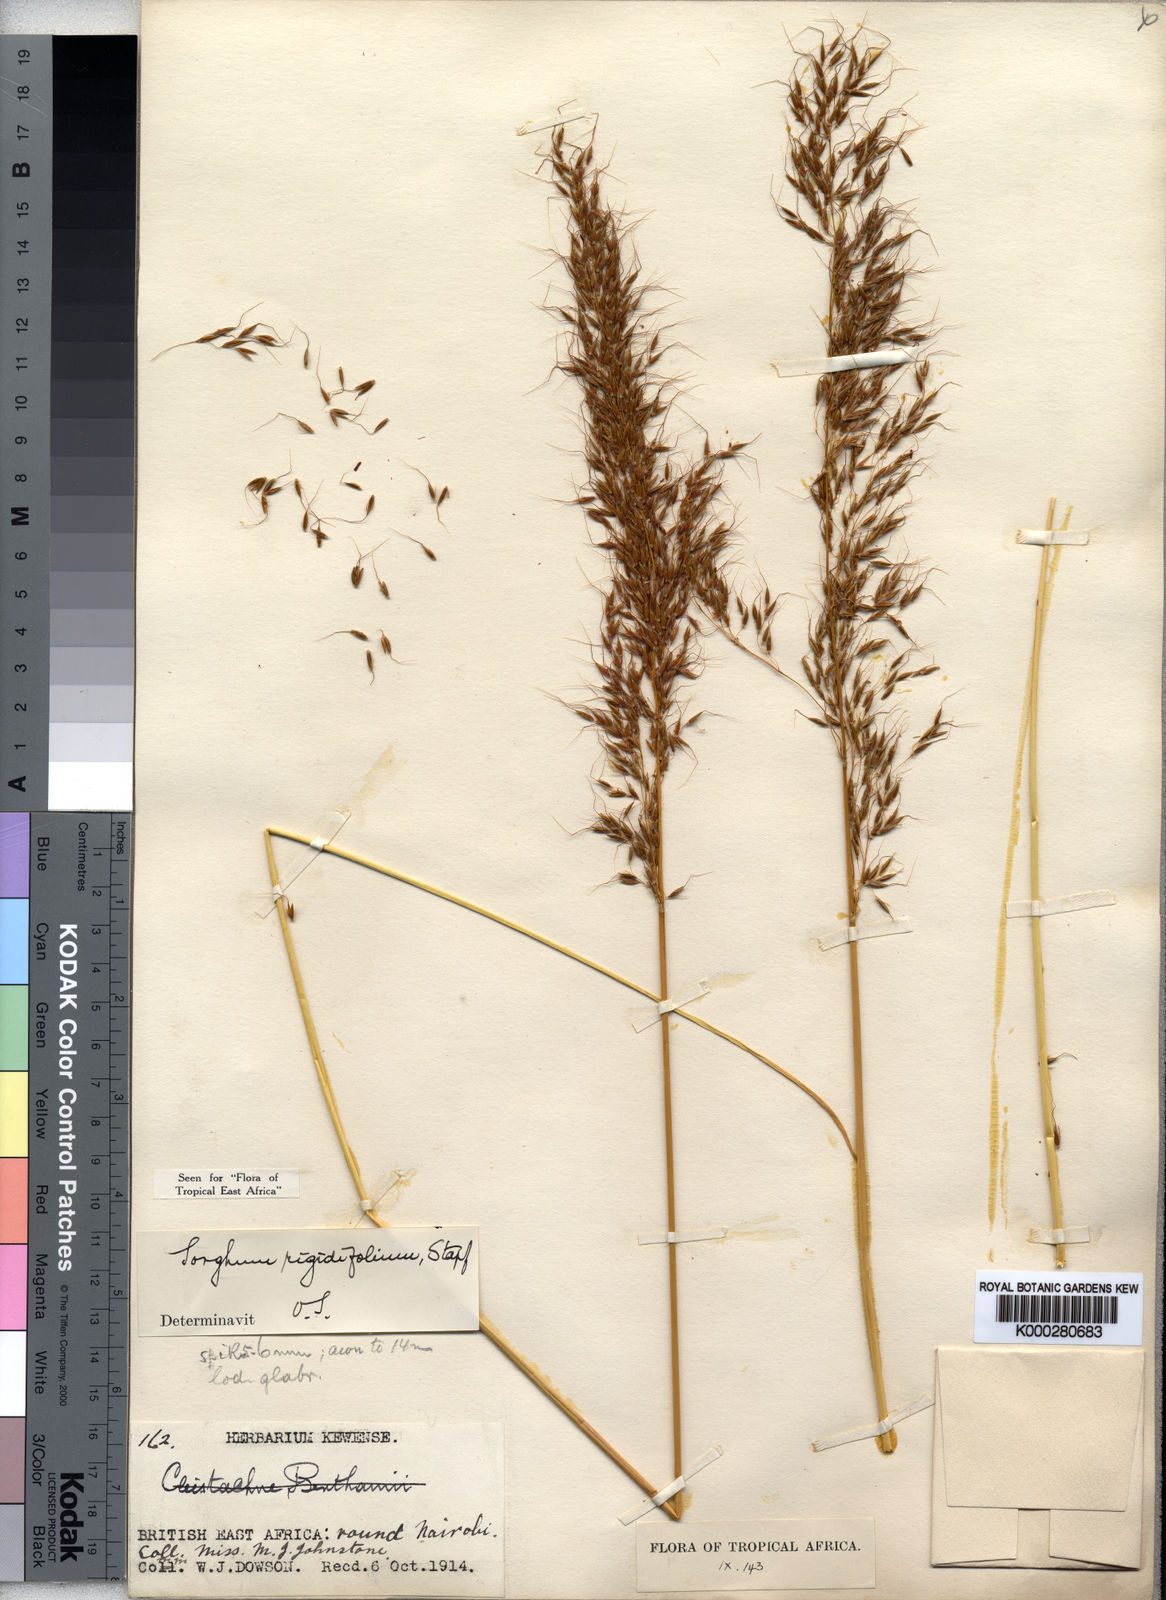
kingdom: Plantae
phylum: Tracheophyta
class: Liliopsida
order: Poales
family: Poaceae
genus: Sorghastrum
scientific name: Sorghastrum stipoides
